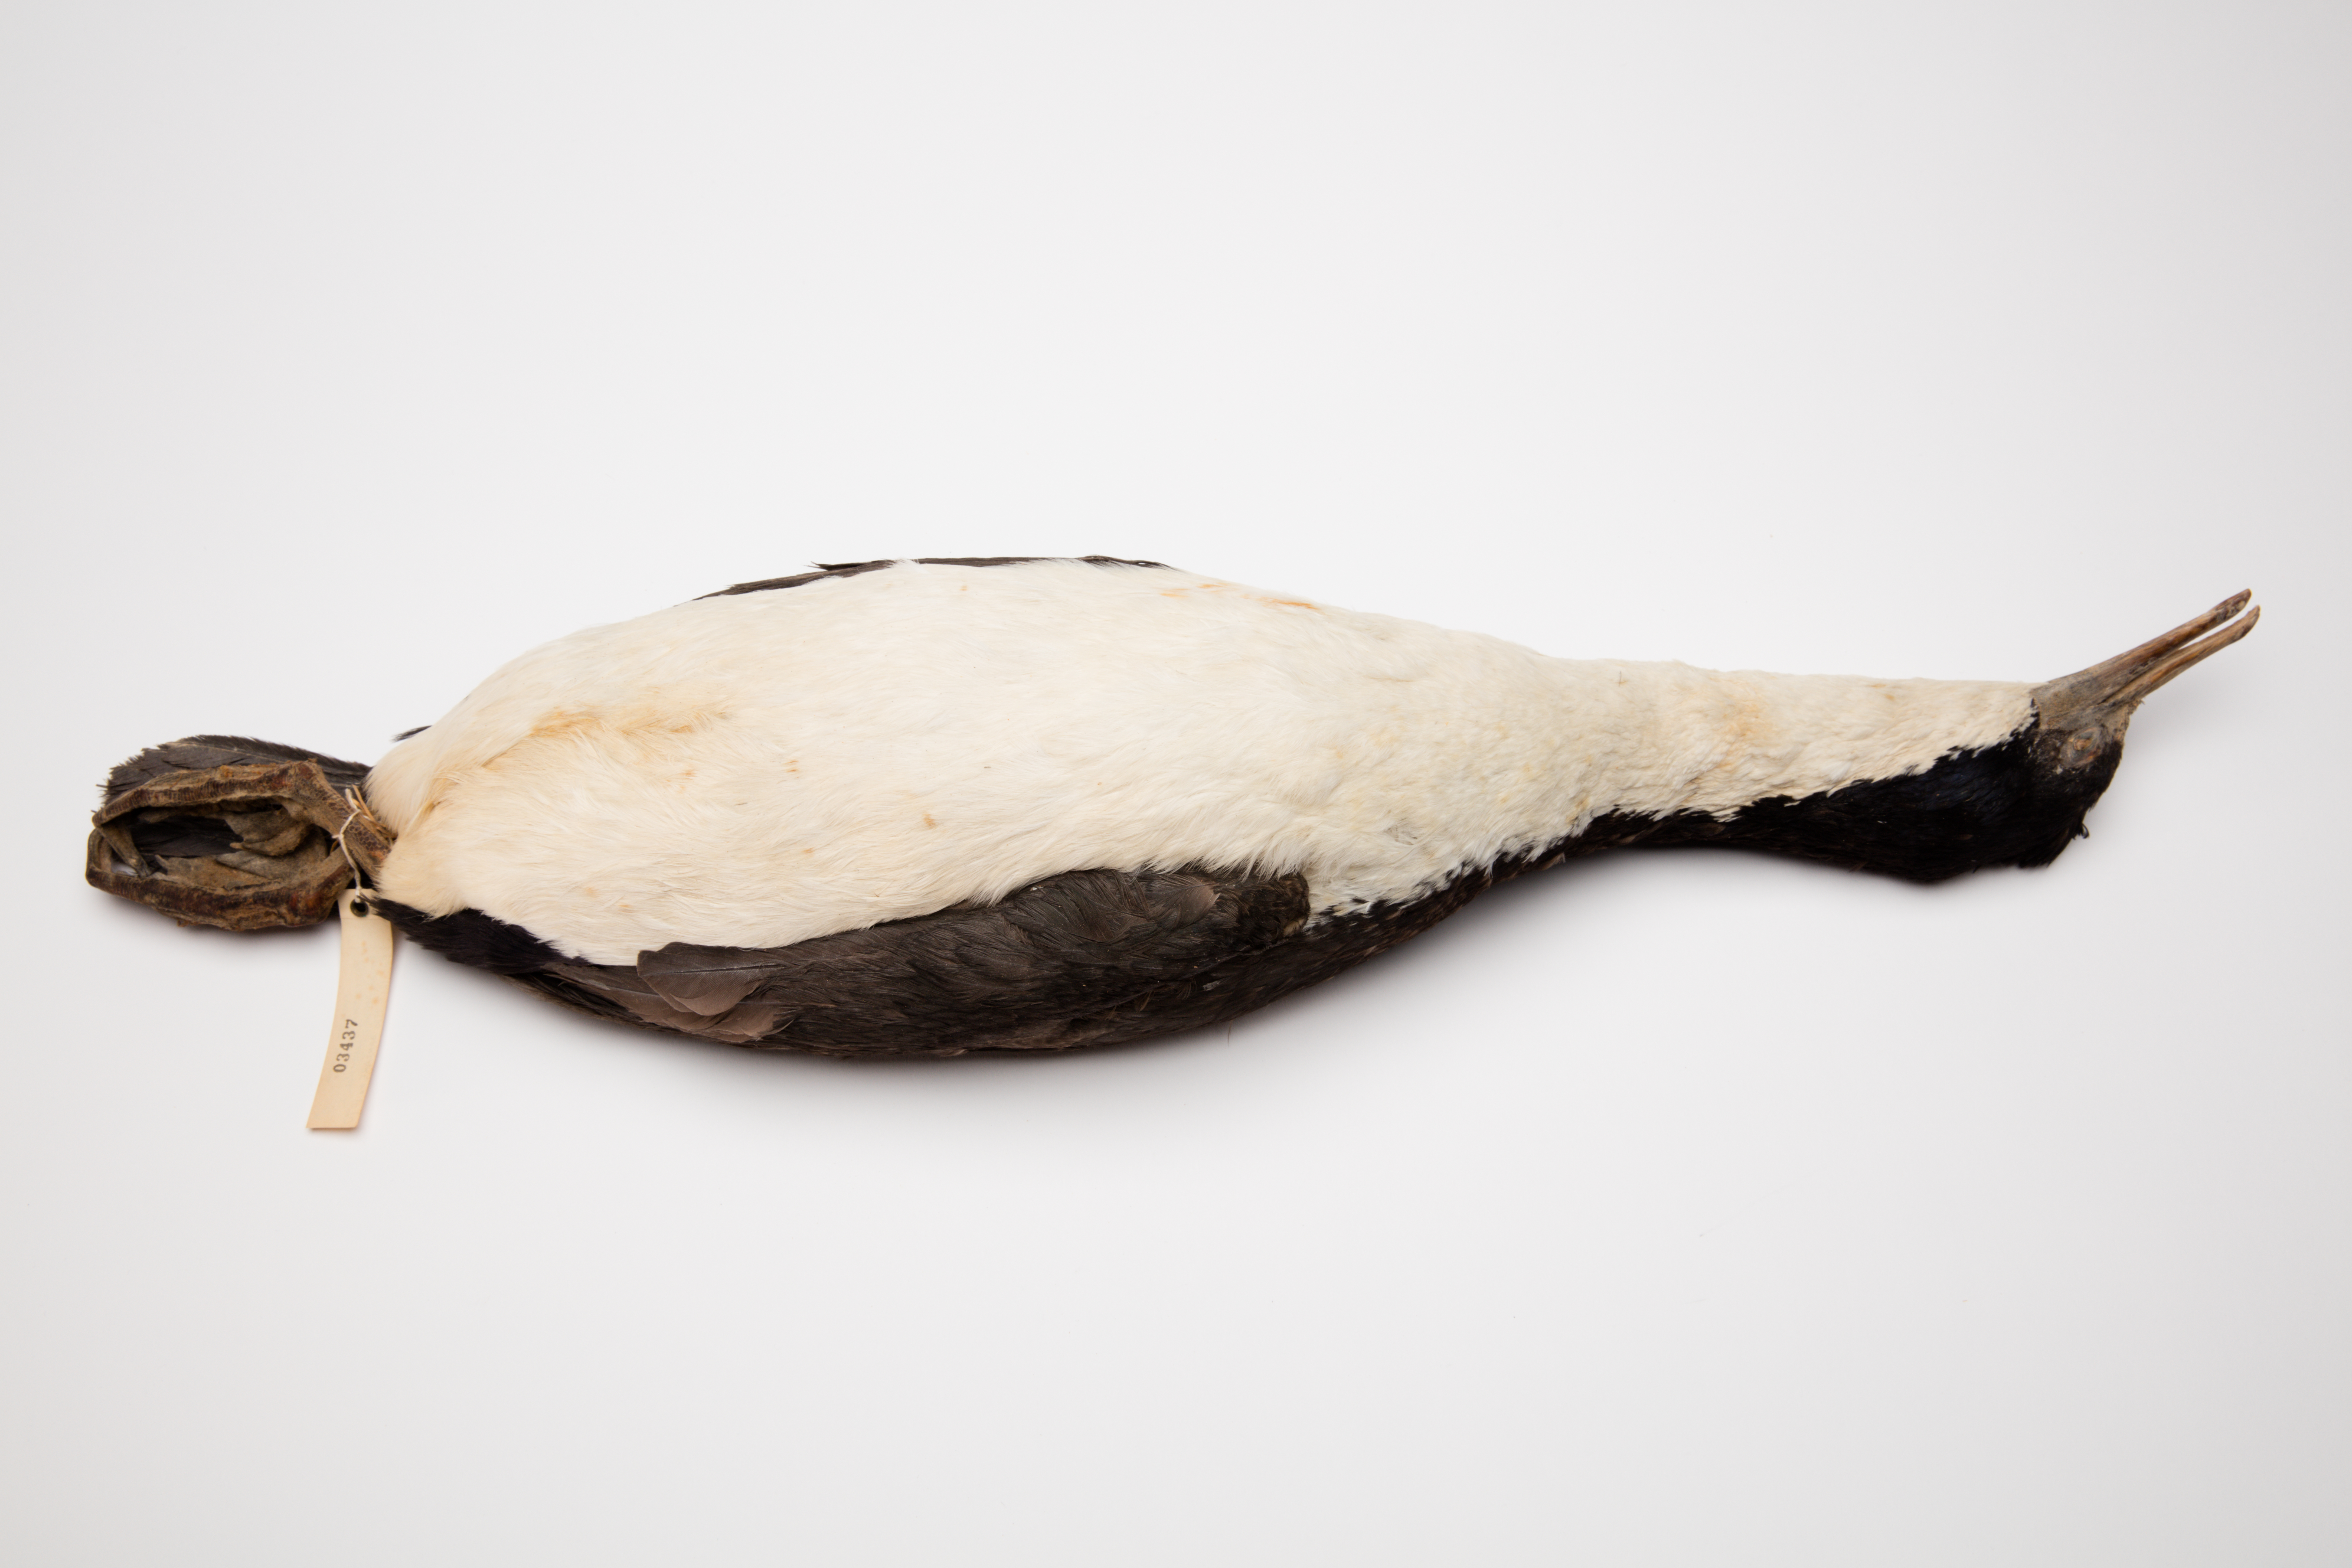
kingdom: Animalia
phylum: Chordata
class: Aves
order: Suliformes
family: Phalacrocoracidae
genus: Leucocarbo
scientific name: Leucocarbo verrucosus
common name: Kerguelen shag
